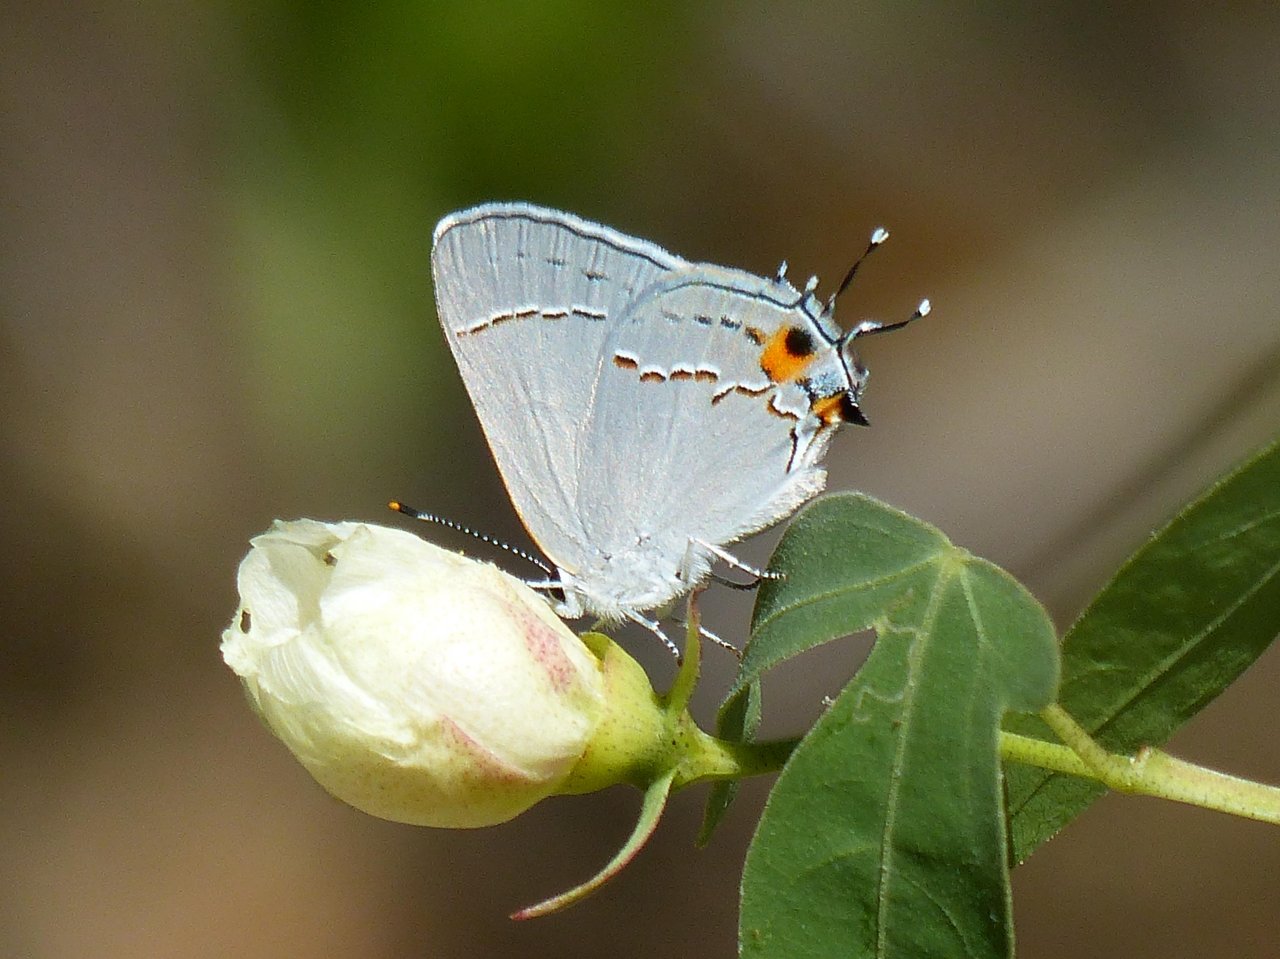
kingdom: Animalia
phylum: Arthropoda
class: Insecta
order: Lepidoptera
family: Lycaenidae
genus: Strymon
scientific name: Strymon melinus
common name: Gray Hairstreak
